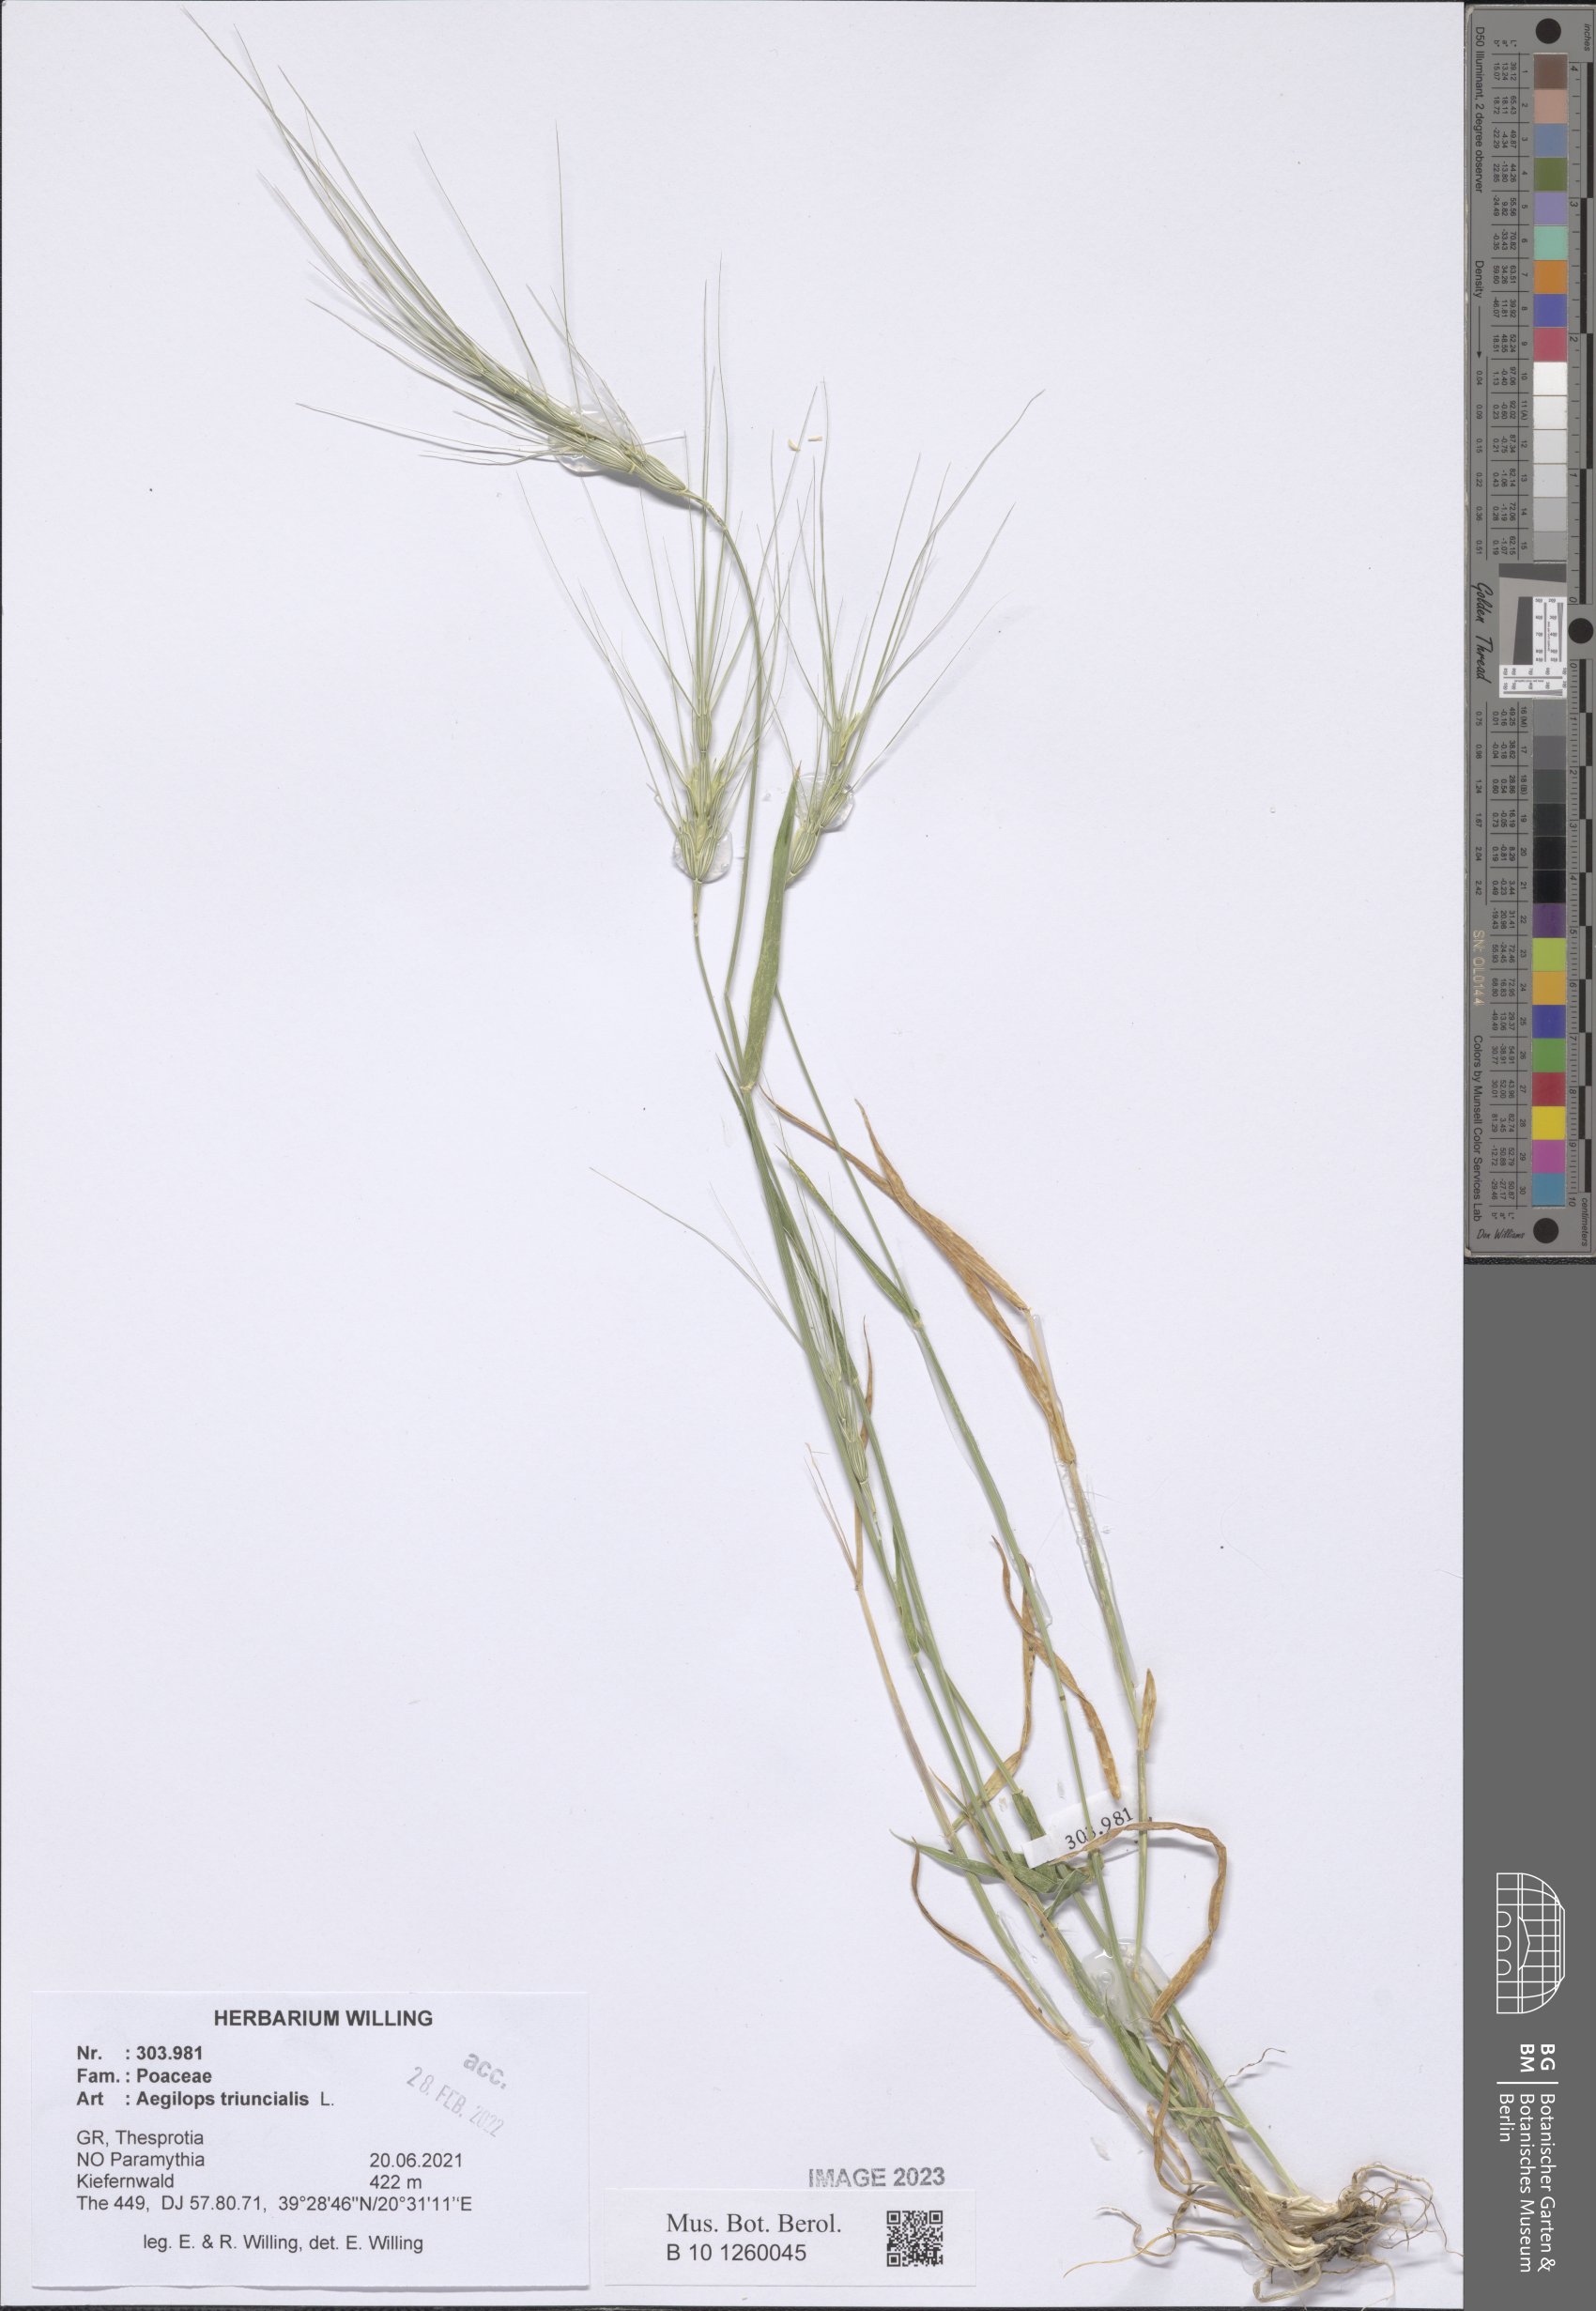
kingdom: Plantae
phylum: Tracheophyta
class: Liliopsida
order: Poales
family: Poaceae
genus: Aegilops
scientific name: Aegilops triuncialis
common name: Barb goat grass
